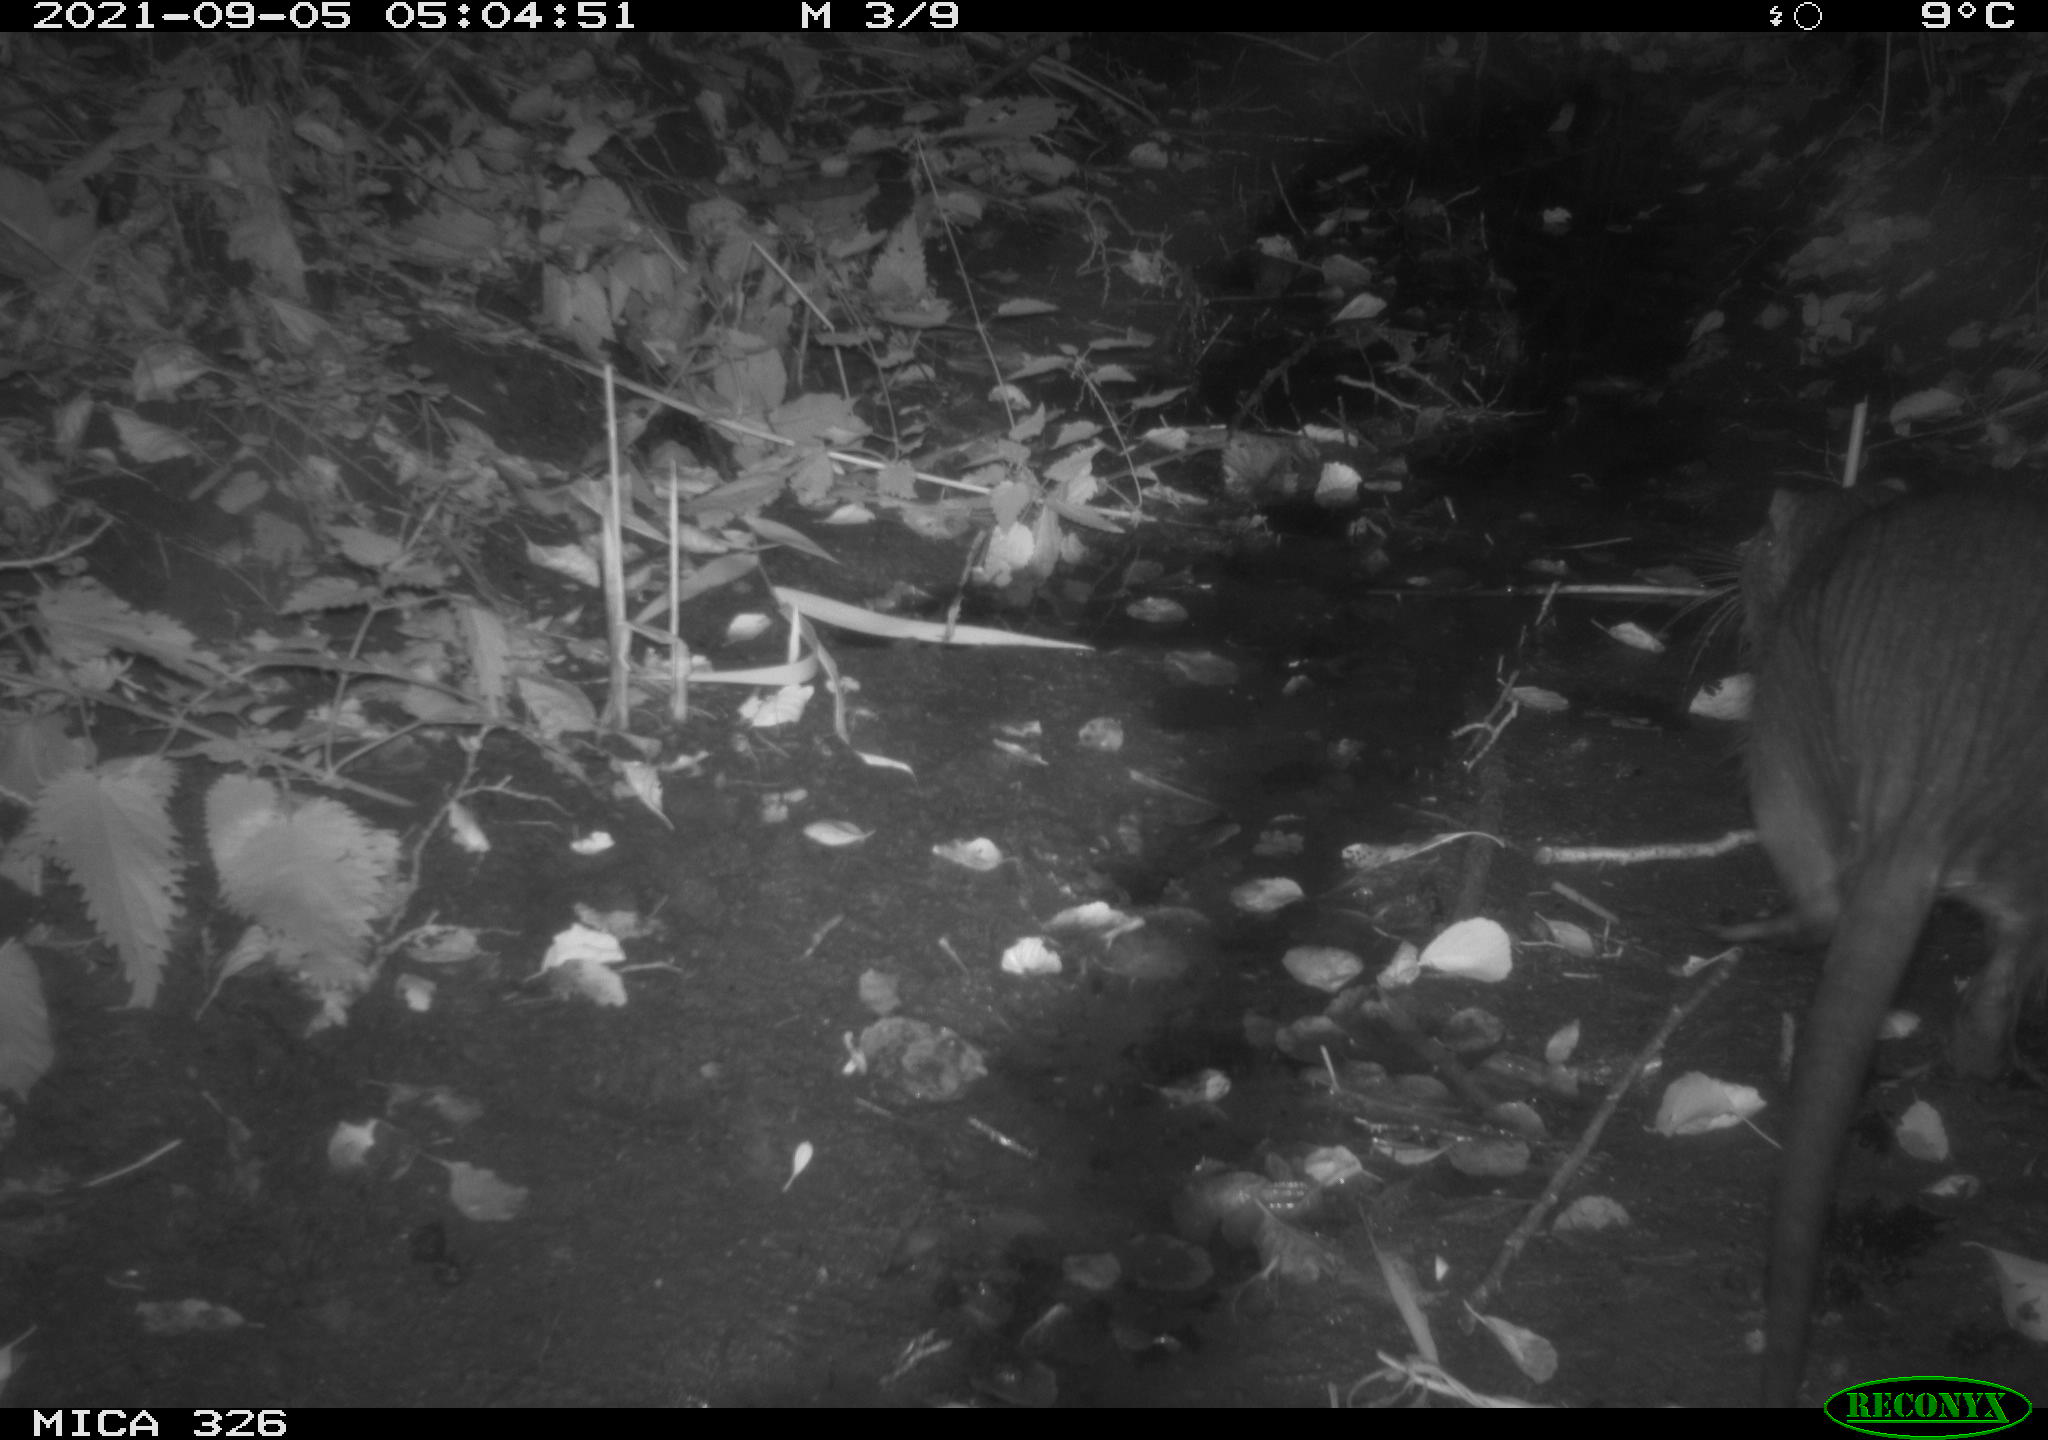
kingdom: Animalia
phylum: Chordata
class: Mammalia
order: Rodentia
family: Myocastoridae
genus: Myocastor
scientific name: Myocastor coypus
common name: Coypu
